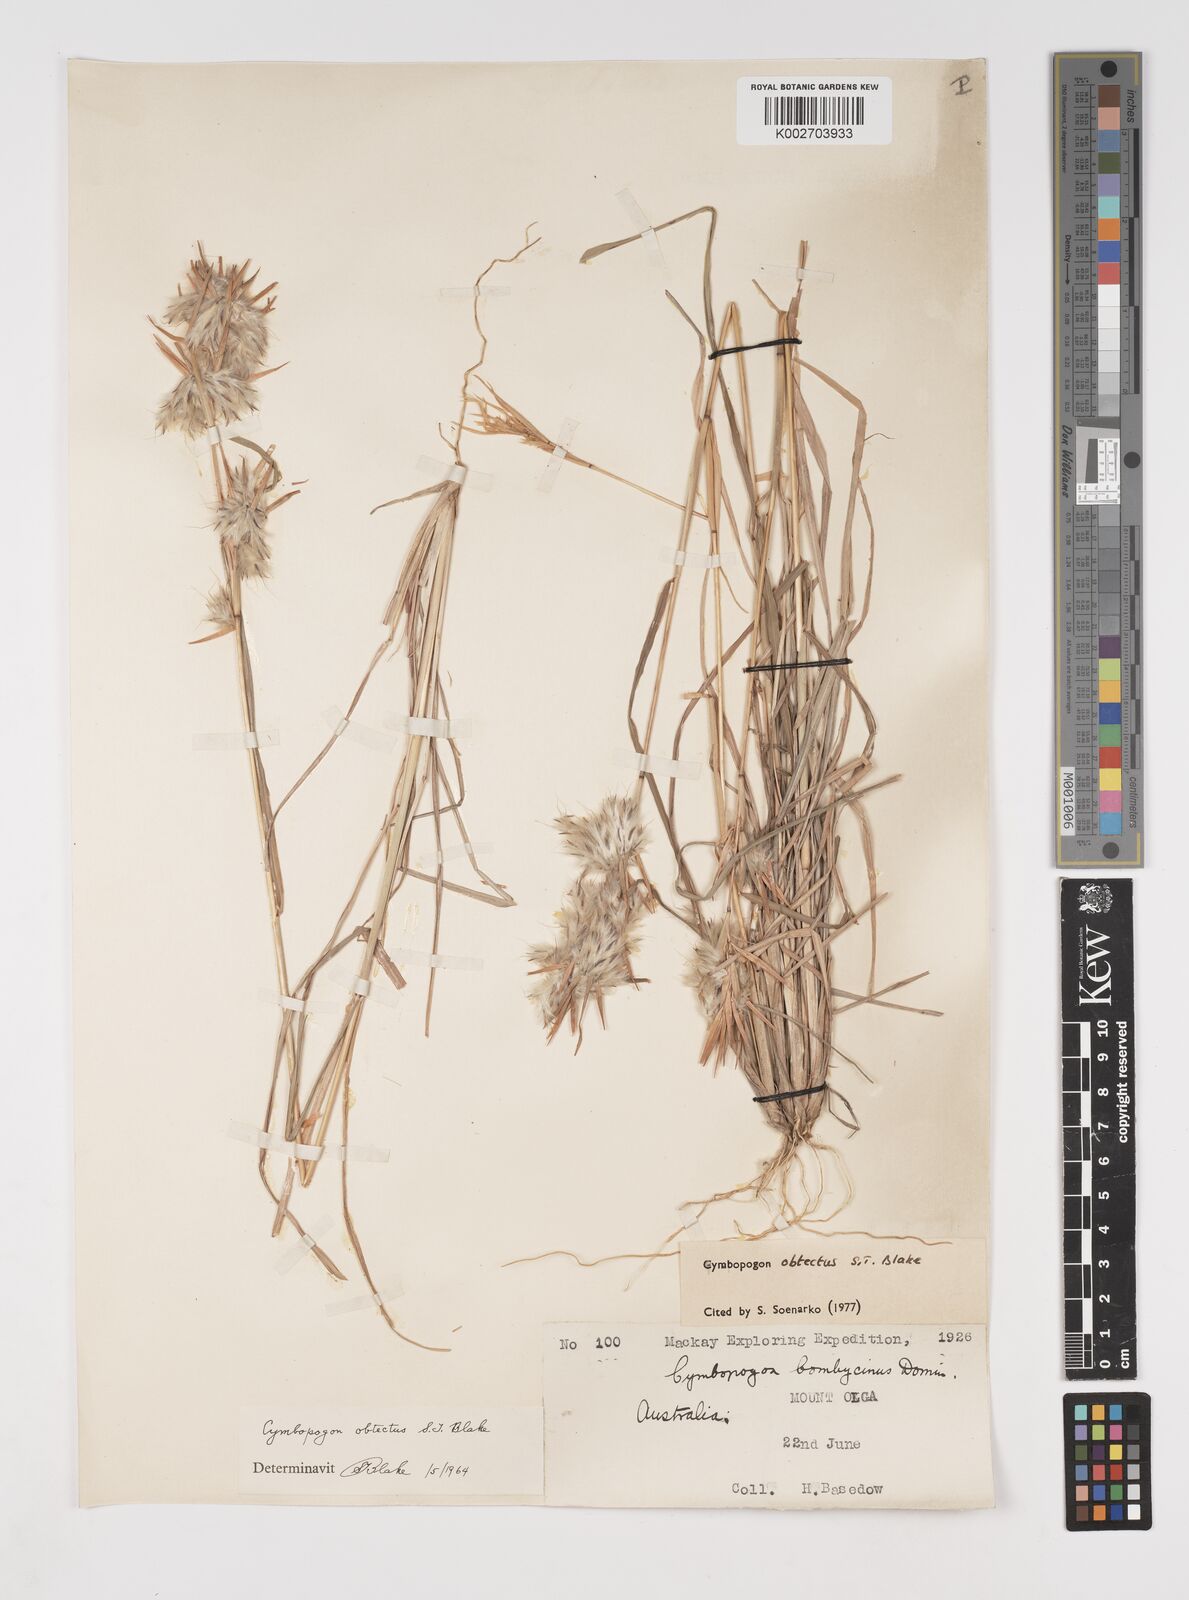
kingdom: Plantae
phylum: Tracheophyta
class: Liliopsida
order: Poales
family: Poaceae
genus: Cymbopogon
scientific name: Cymbopogon obtectus
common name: Silky heads
